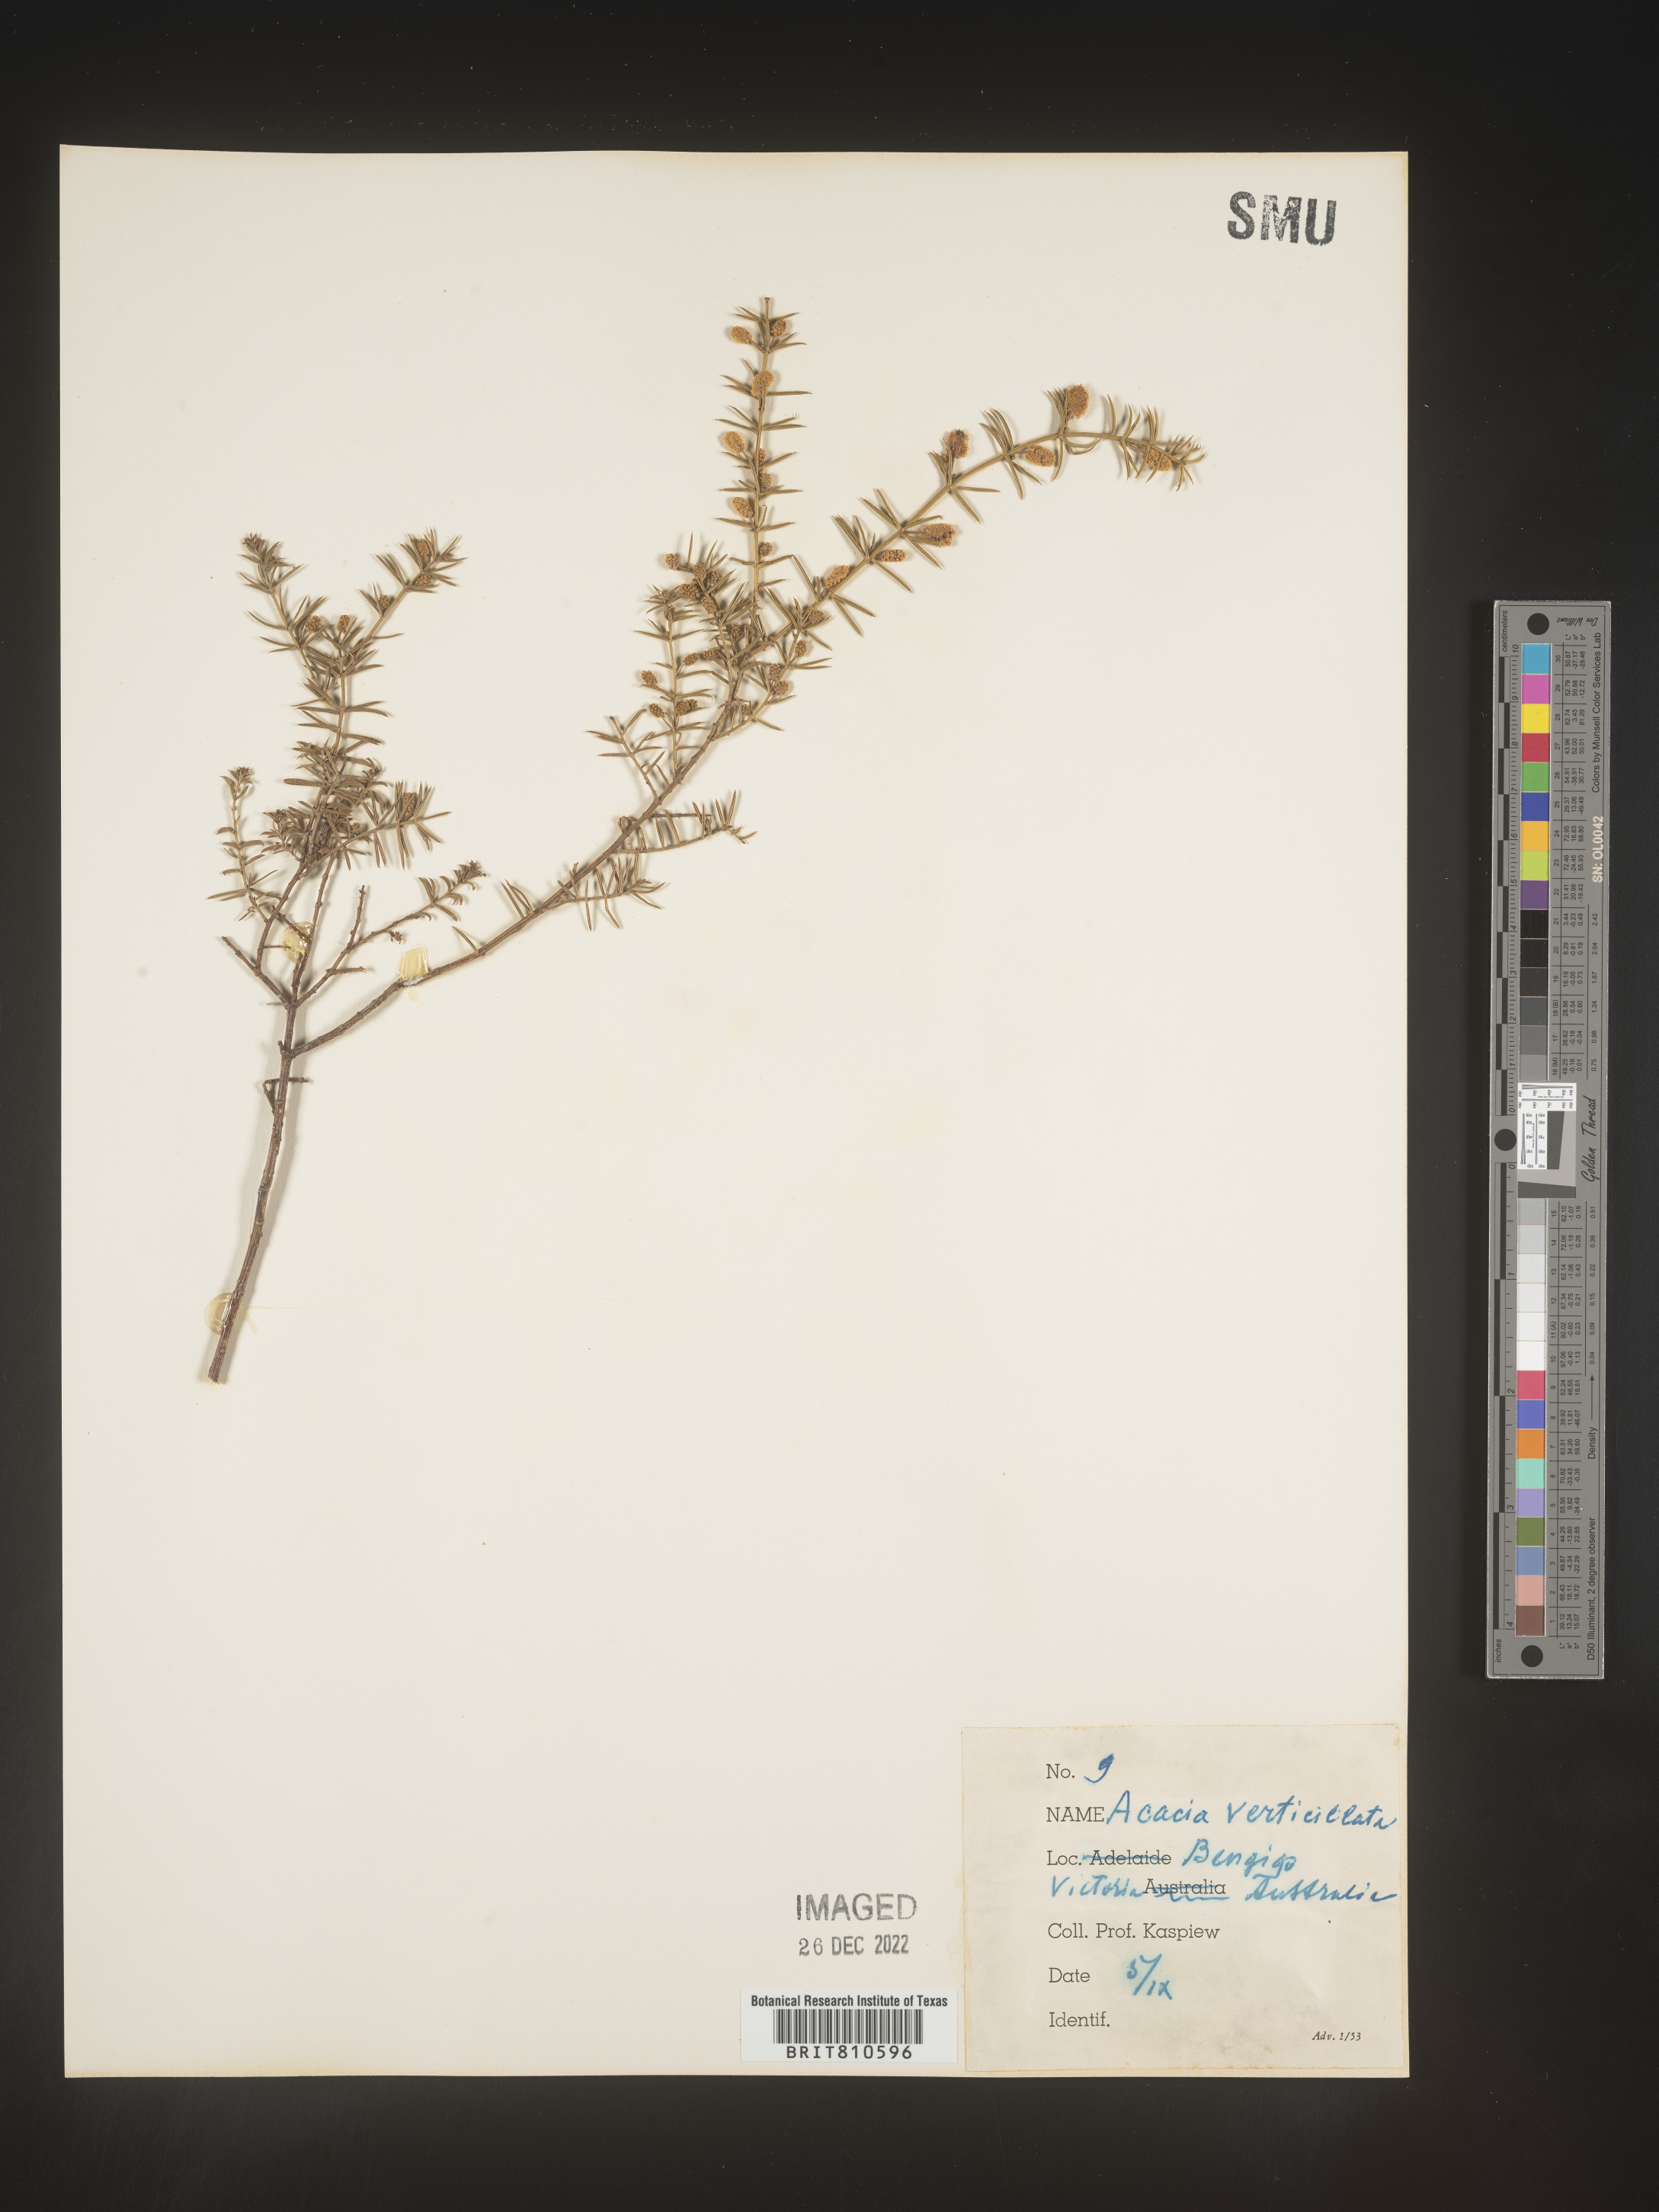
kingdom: Plantae
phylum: Tracheophyta
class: Magnoliopsida
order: Fabales
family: Fabaceae
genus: Acacia
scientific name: Acacia
